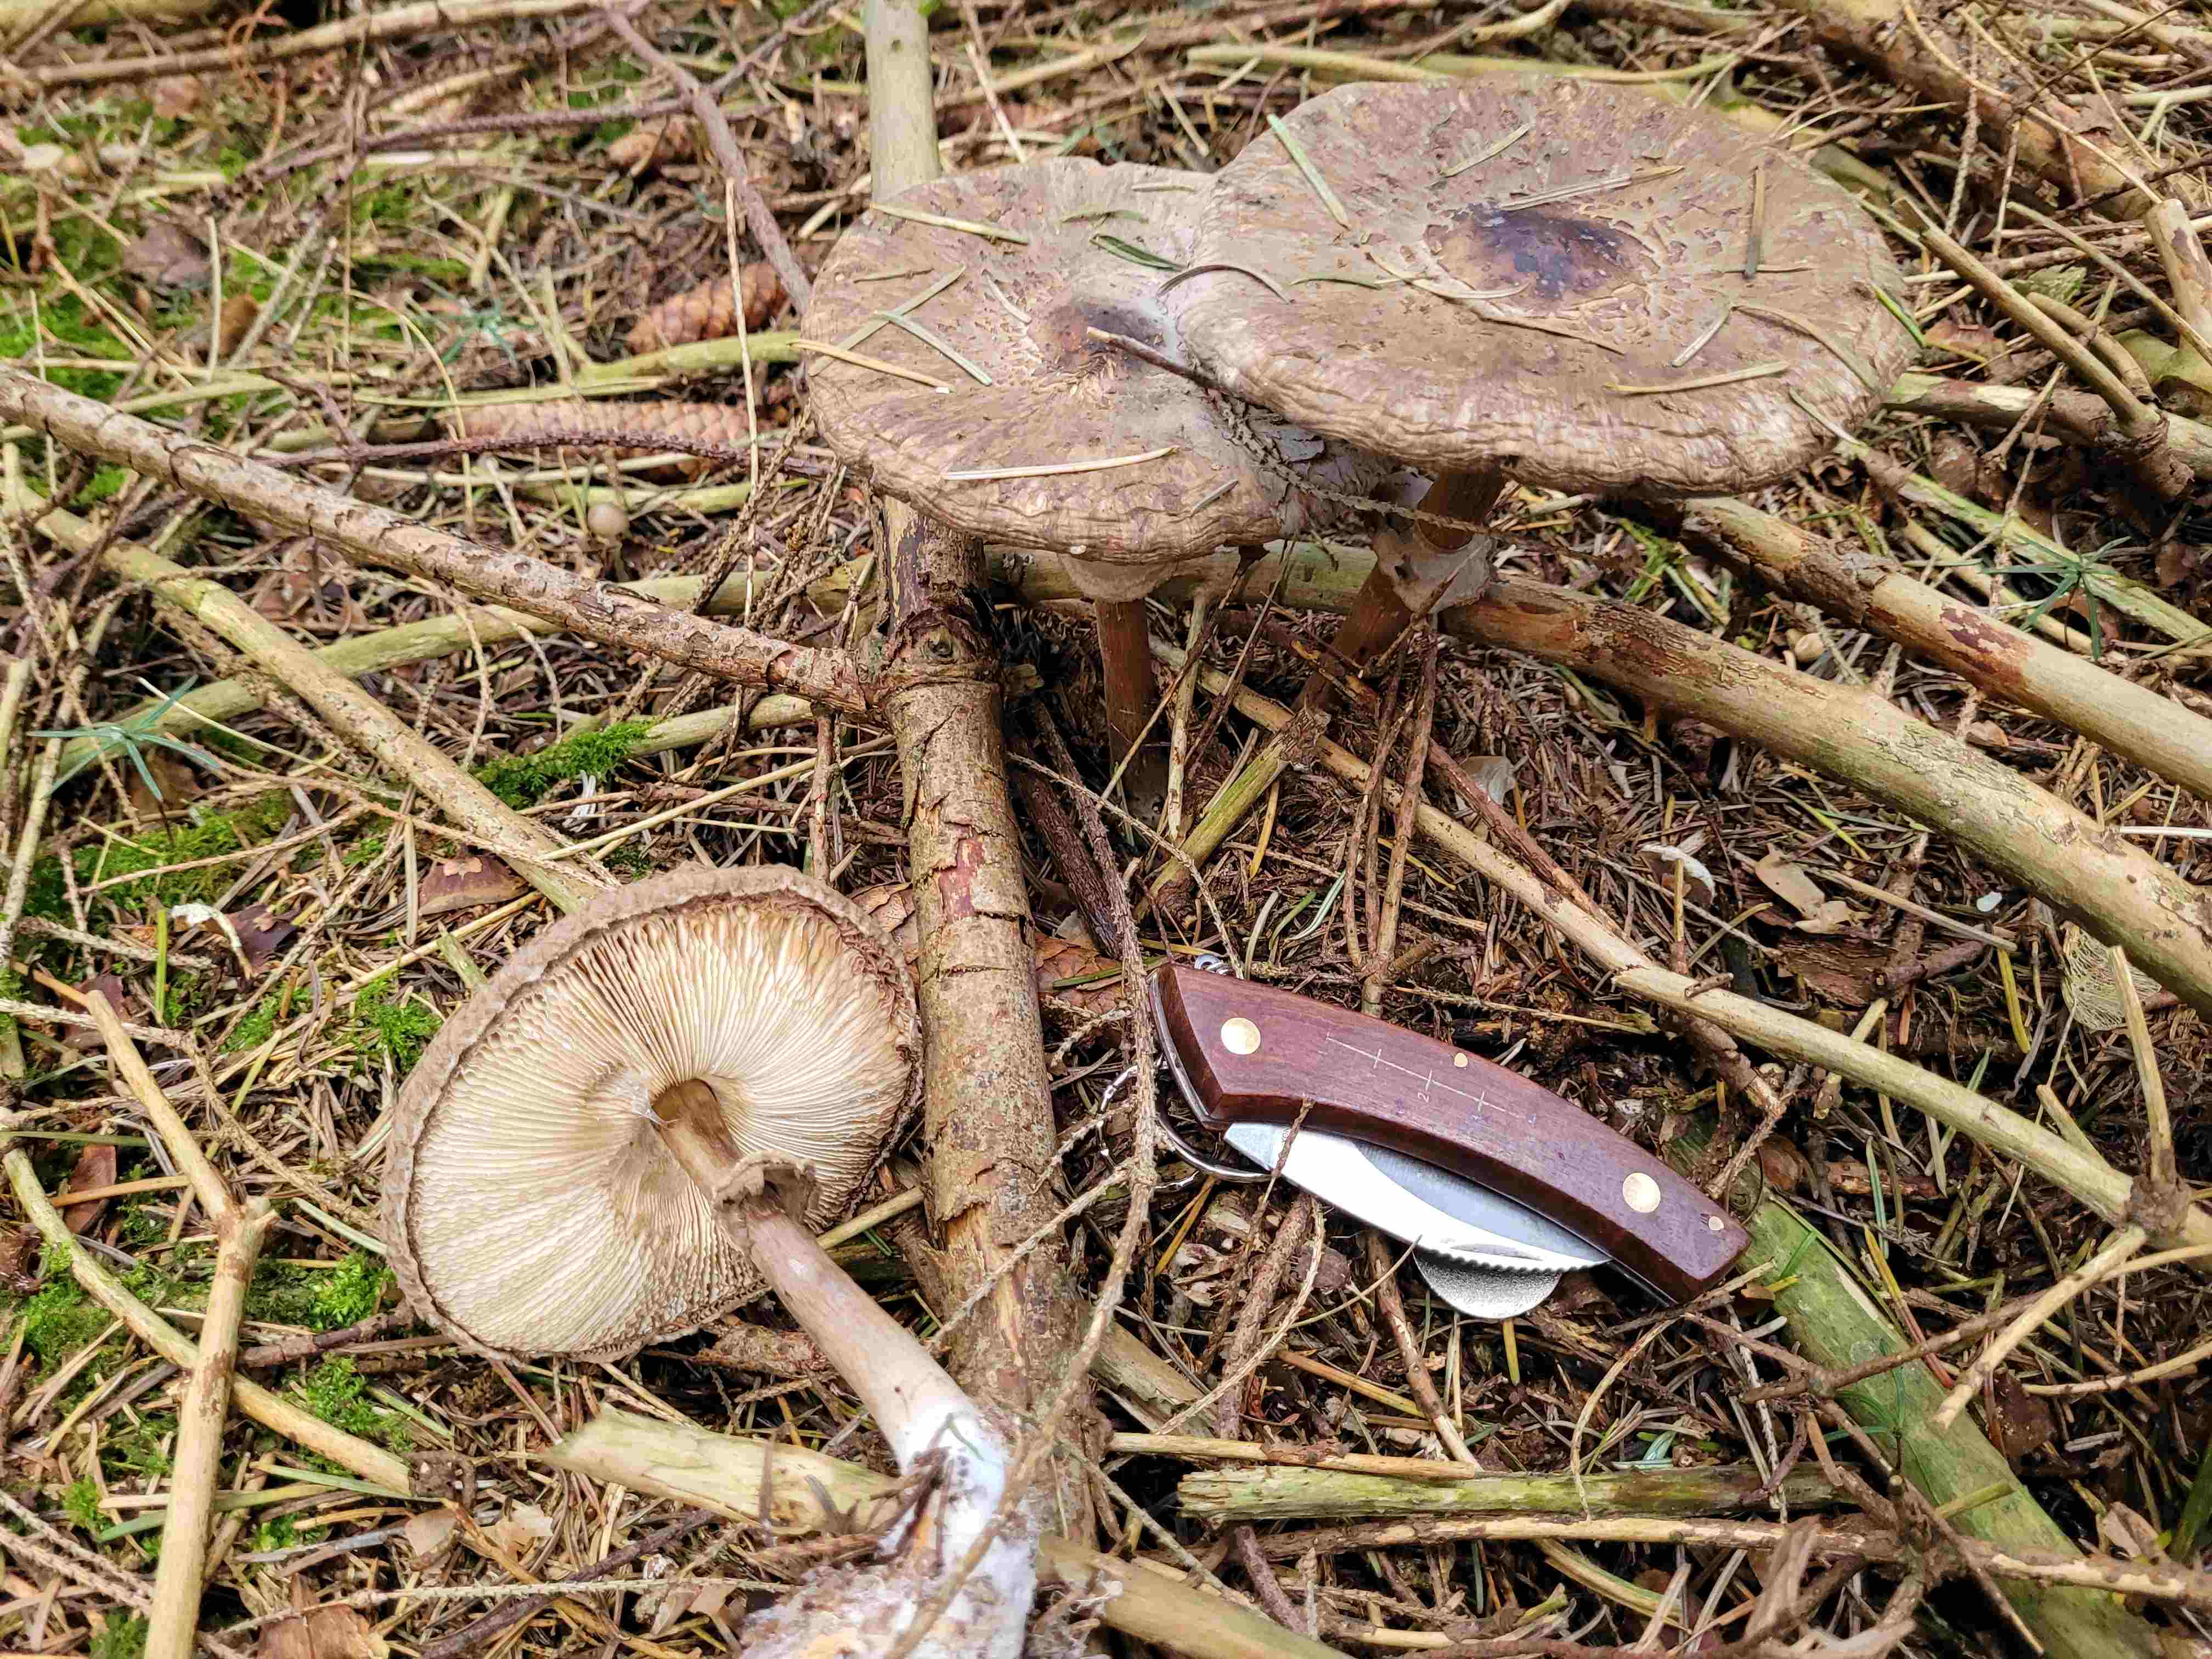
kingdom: Fungi
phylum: Basidiomycota
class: Agaricomycetes
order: Agaricales
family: Agaricaceae
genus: Chlorophyllum
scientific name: Chlorophyllum olivieri
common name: almindelig rabarberhat
